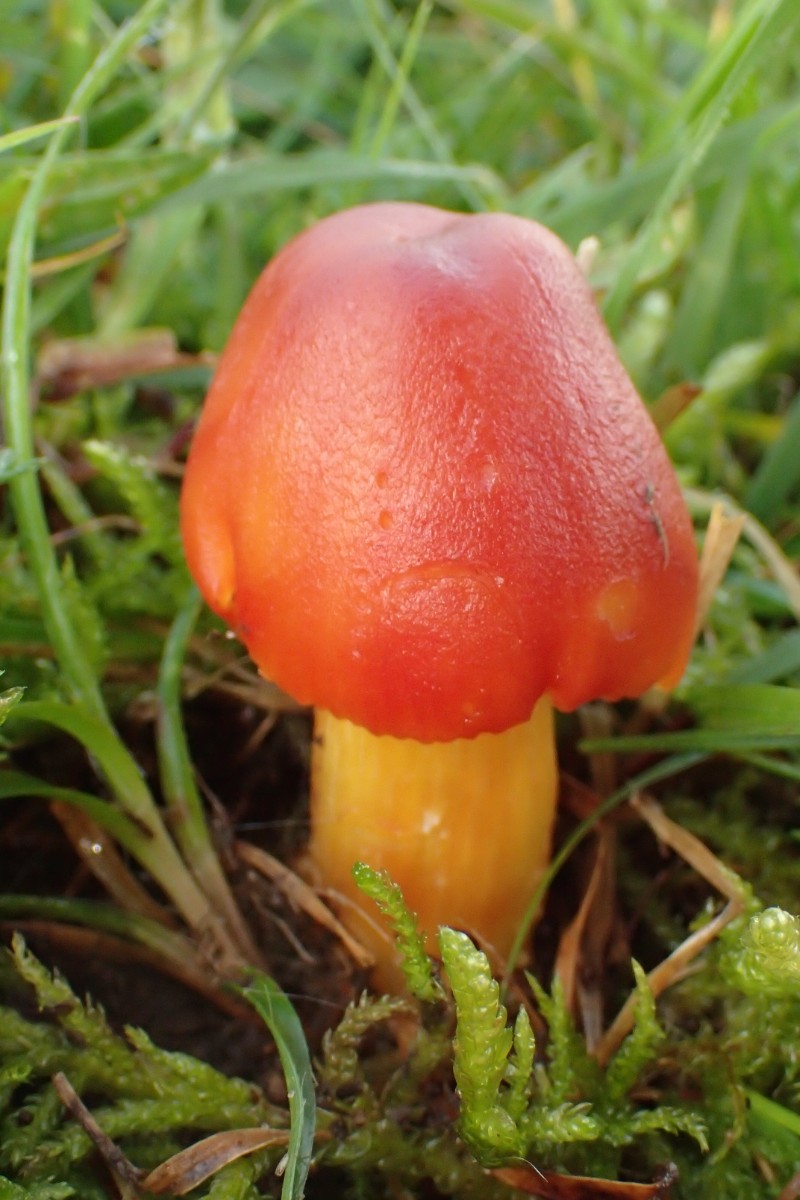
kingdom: Fungi
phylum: Basidiomycota
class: Agaricomycetes
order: Agaricales
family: Hygrophoraceae
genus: Hygrocybe
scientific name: Hygrocybe punicea
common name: skarlagen-vokshat
